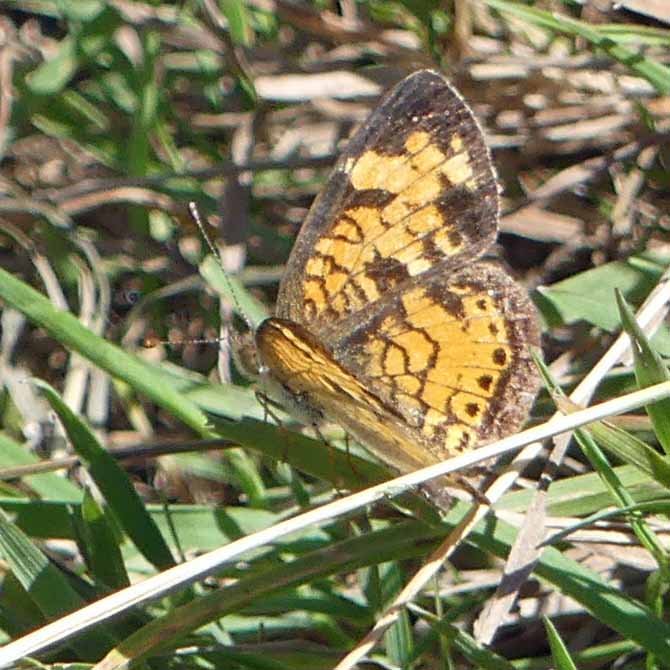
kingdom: Animalia
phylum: Arthropoda
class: Insecta
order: Lepidoptera
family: Nymphalidae
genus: Phyciodes
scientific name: Phyciodes tharos
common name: Northern Crescent
